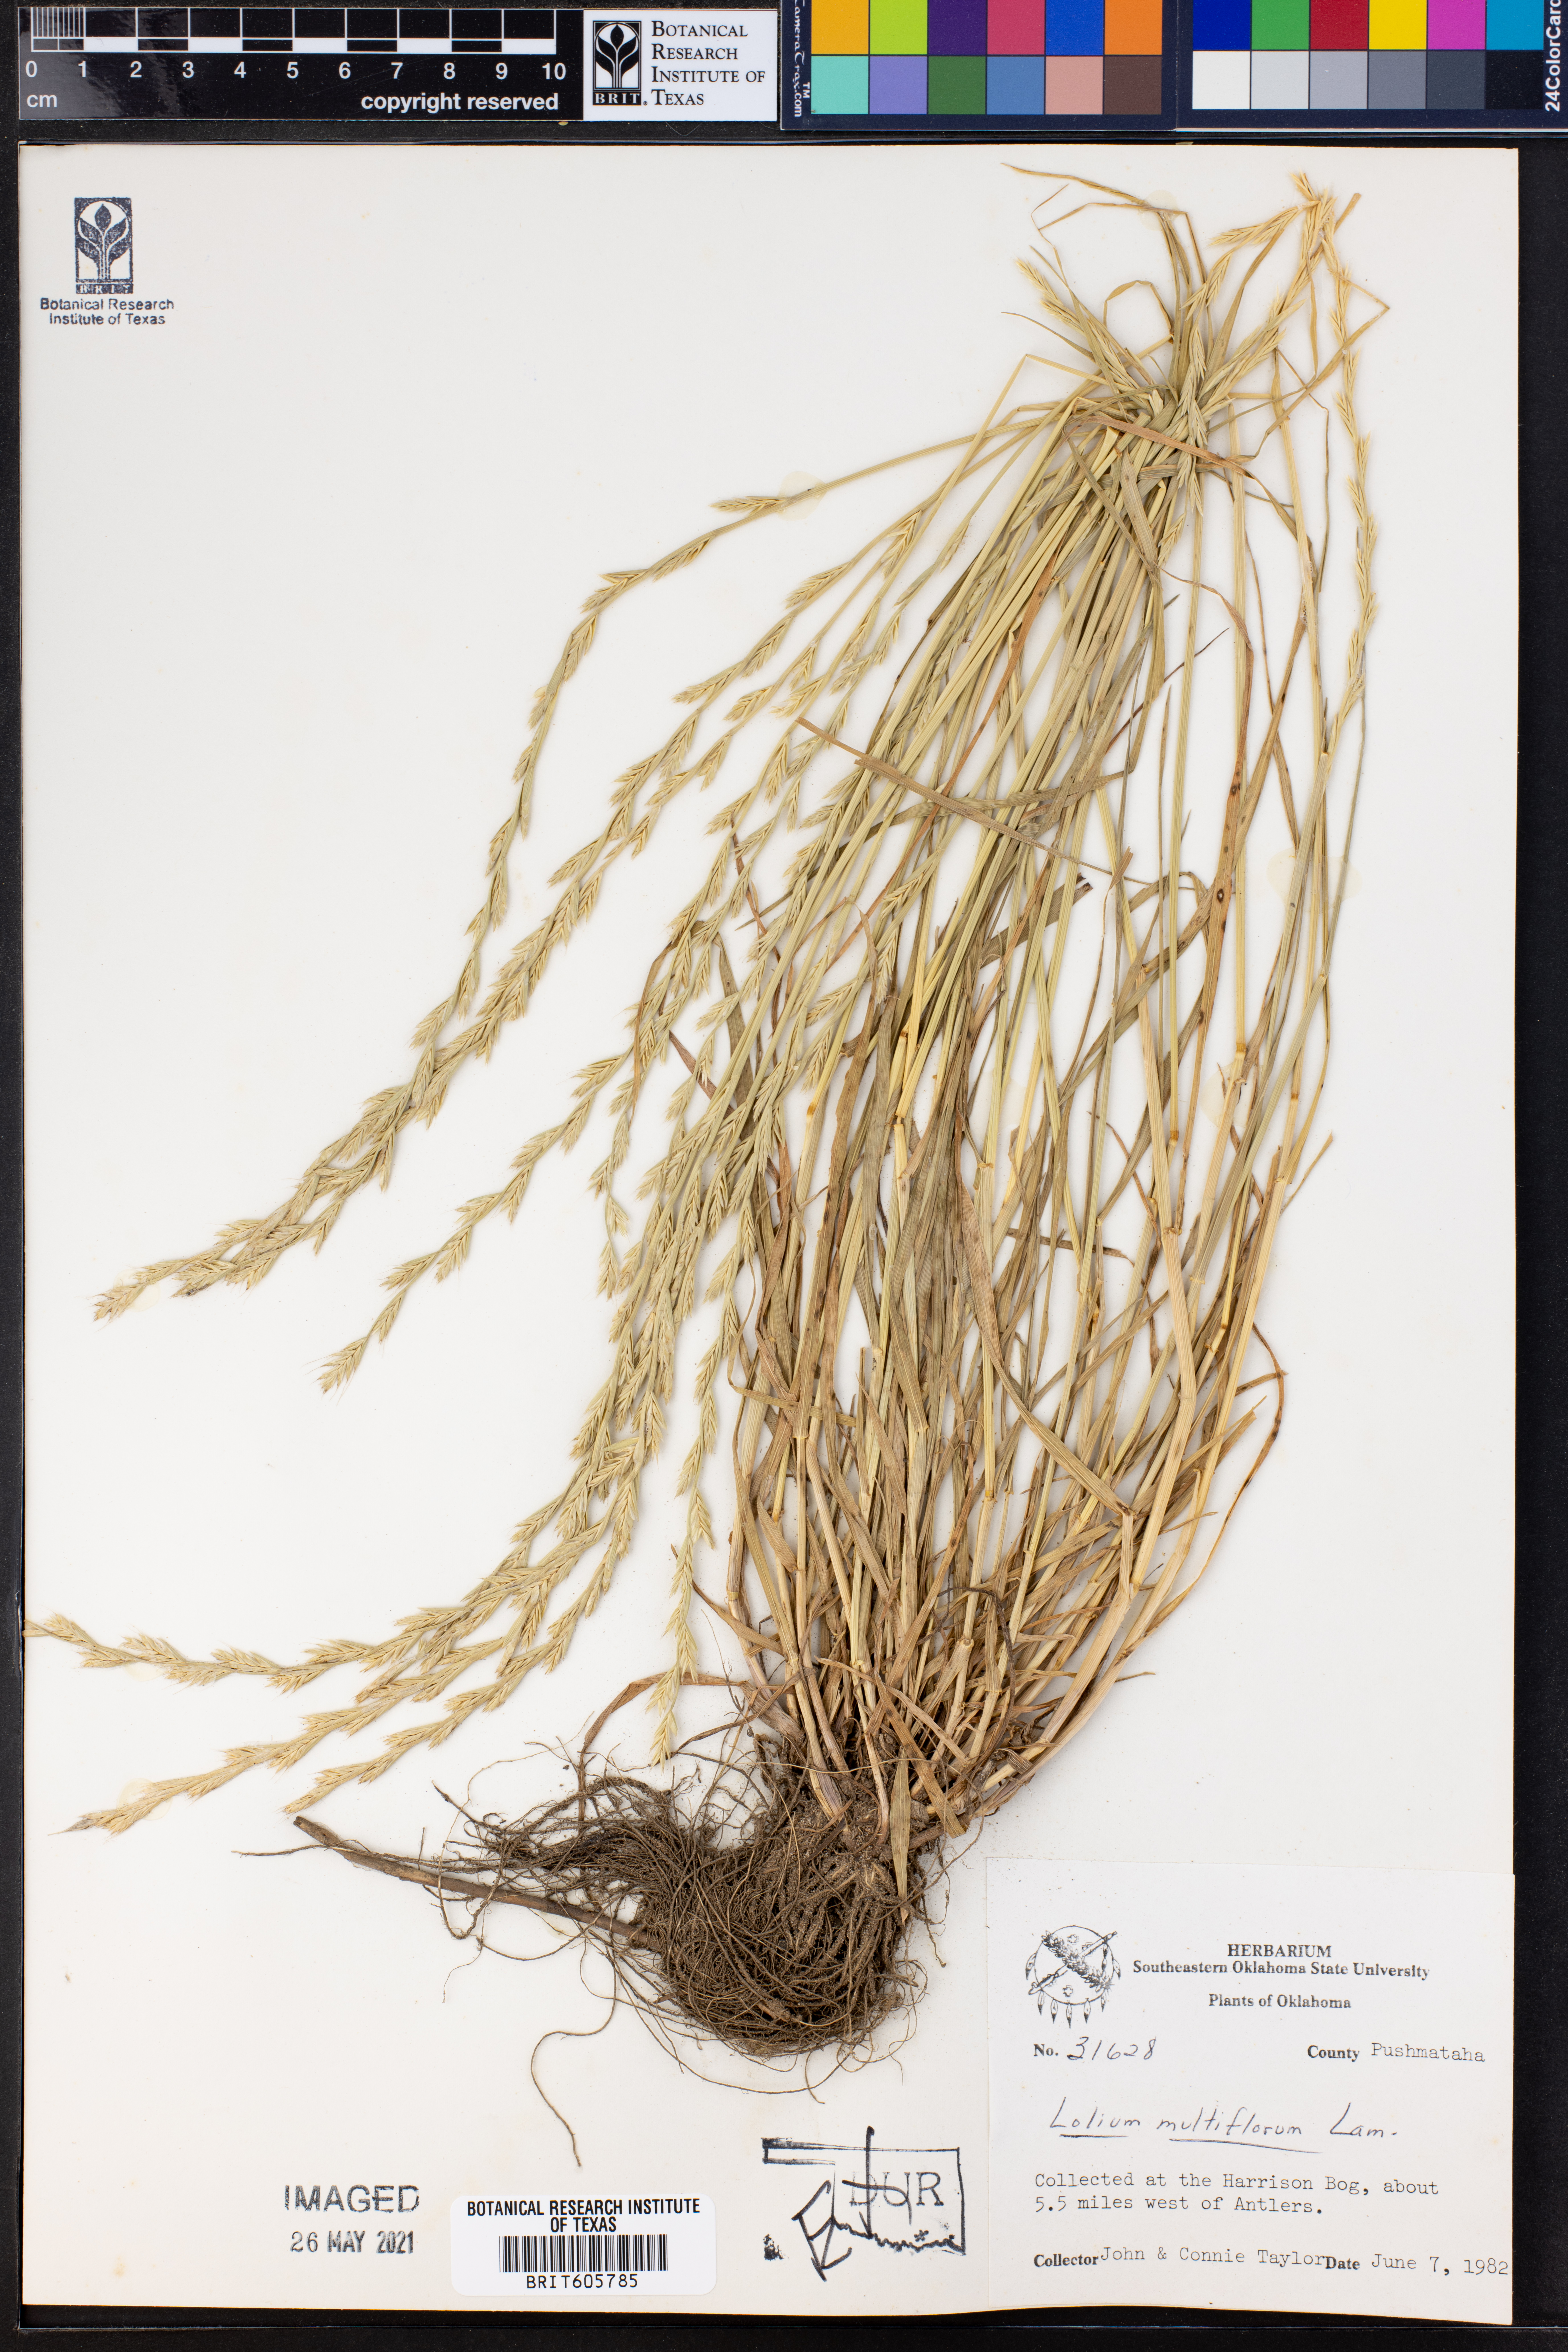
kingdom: Plantae
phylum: Tracheophyta
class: Liliopsida
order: Poales
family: Poaceae
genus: Lolium
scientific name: Lolium multiflorum
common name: Annual ryegrass
